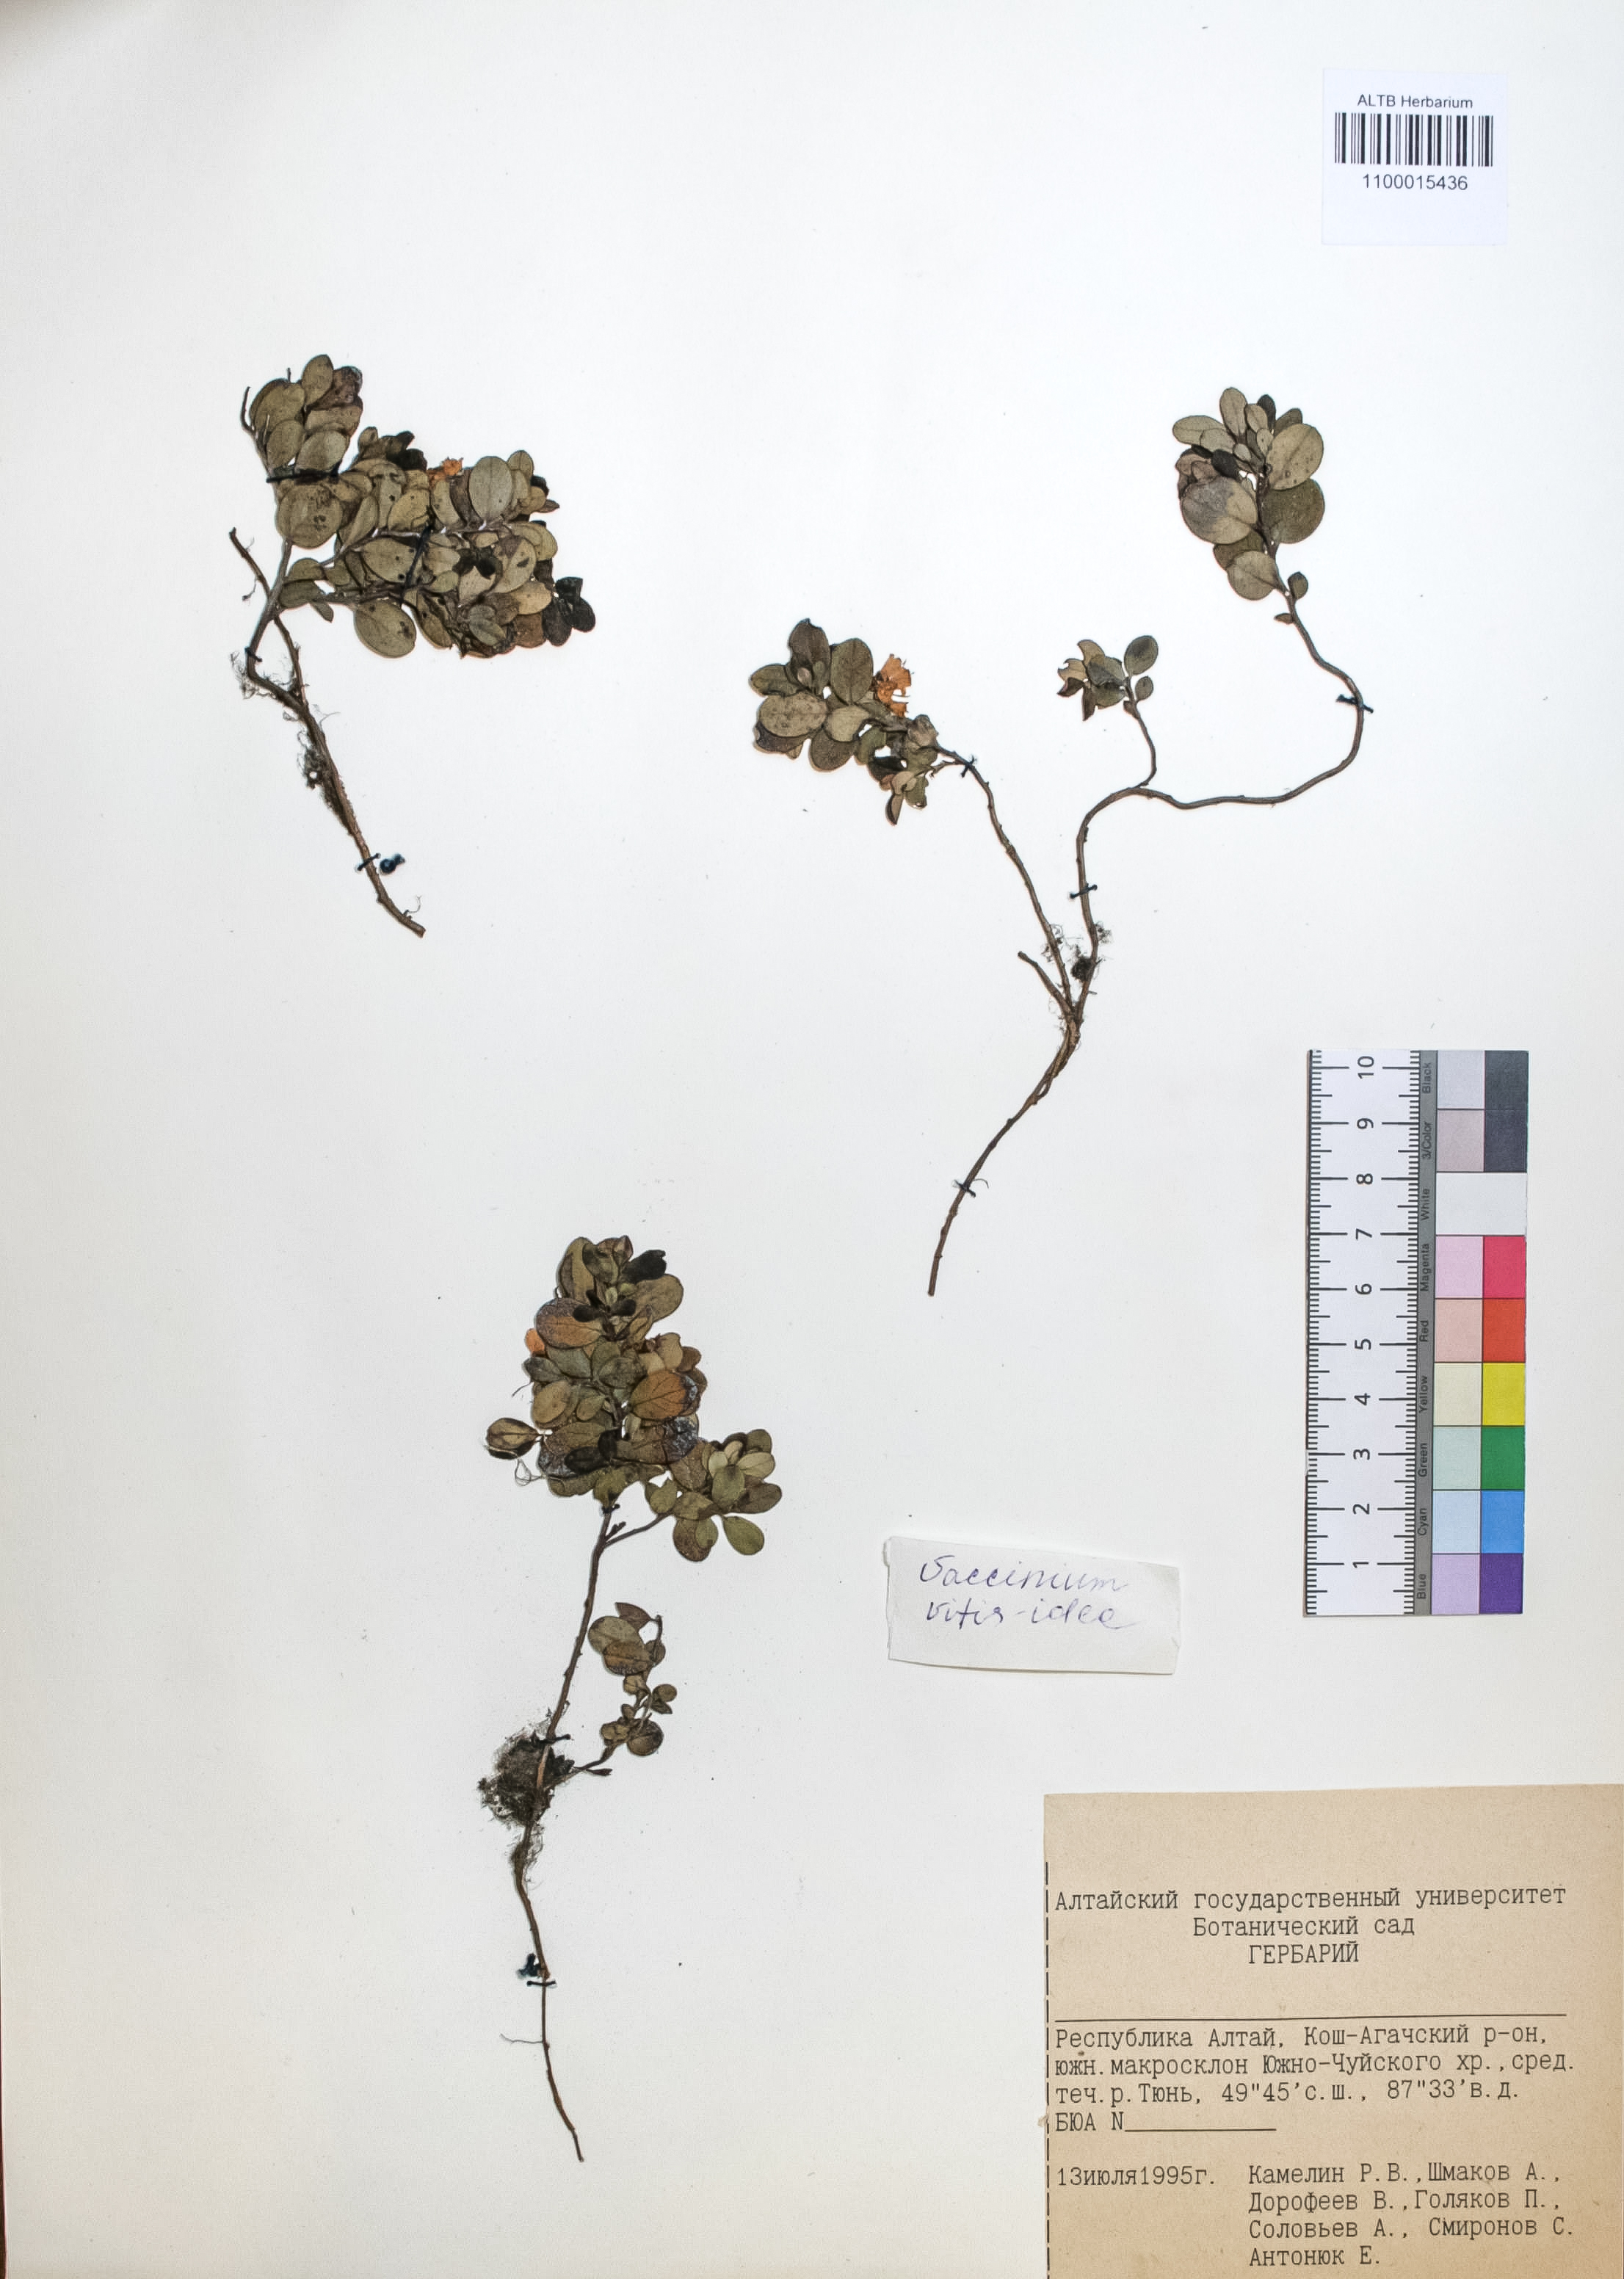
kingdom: Plantae
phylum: Tracheophyta
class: Magnoliopsida
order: Ericales
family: Ericaceae
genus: Vaccinium
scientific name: Vaccinium vitis-idaea
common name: Cowberry
